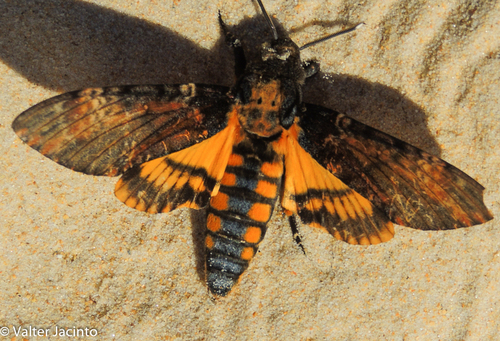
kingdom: Animalia
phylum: Arthropoda
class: Insecta
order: Lepidoptera
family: Sphingidae
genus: Acherontia
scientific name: Acherontia atropos
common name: Death's-head hawk moth
